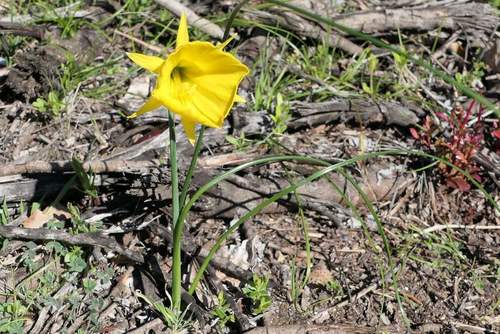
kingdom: Plantae
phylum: Tracheophyta
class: Liliopsida
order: Asparagales
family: Amaryllidaceae
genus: Narcissus
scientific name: Narcissus bulbocodium
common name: Hoop-petticoat daffodil
